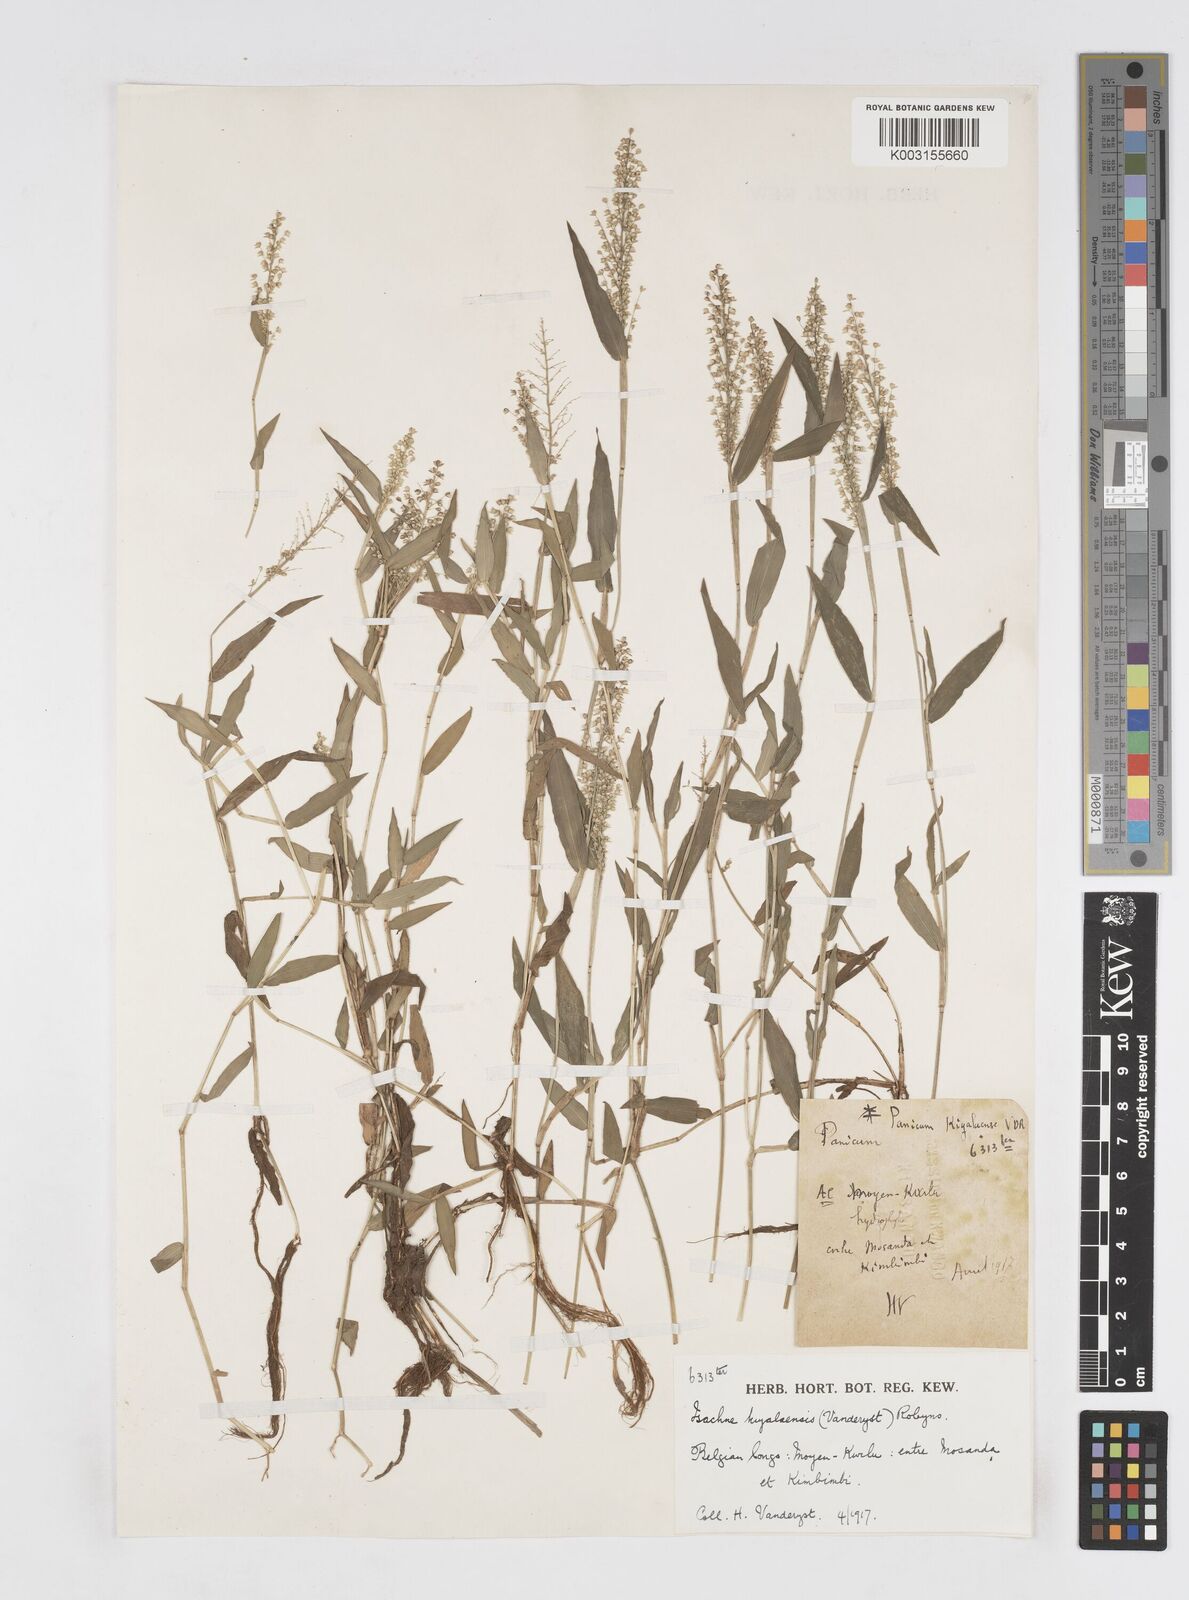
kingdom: Plantae
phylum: Tracheophyta
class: Liliopsida
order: Poales
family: Poaceae
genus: Isachne
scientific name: Isachne kiyalaensis
